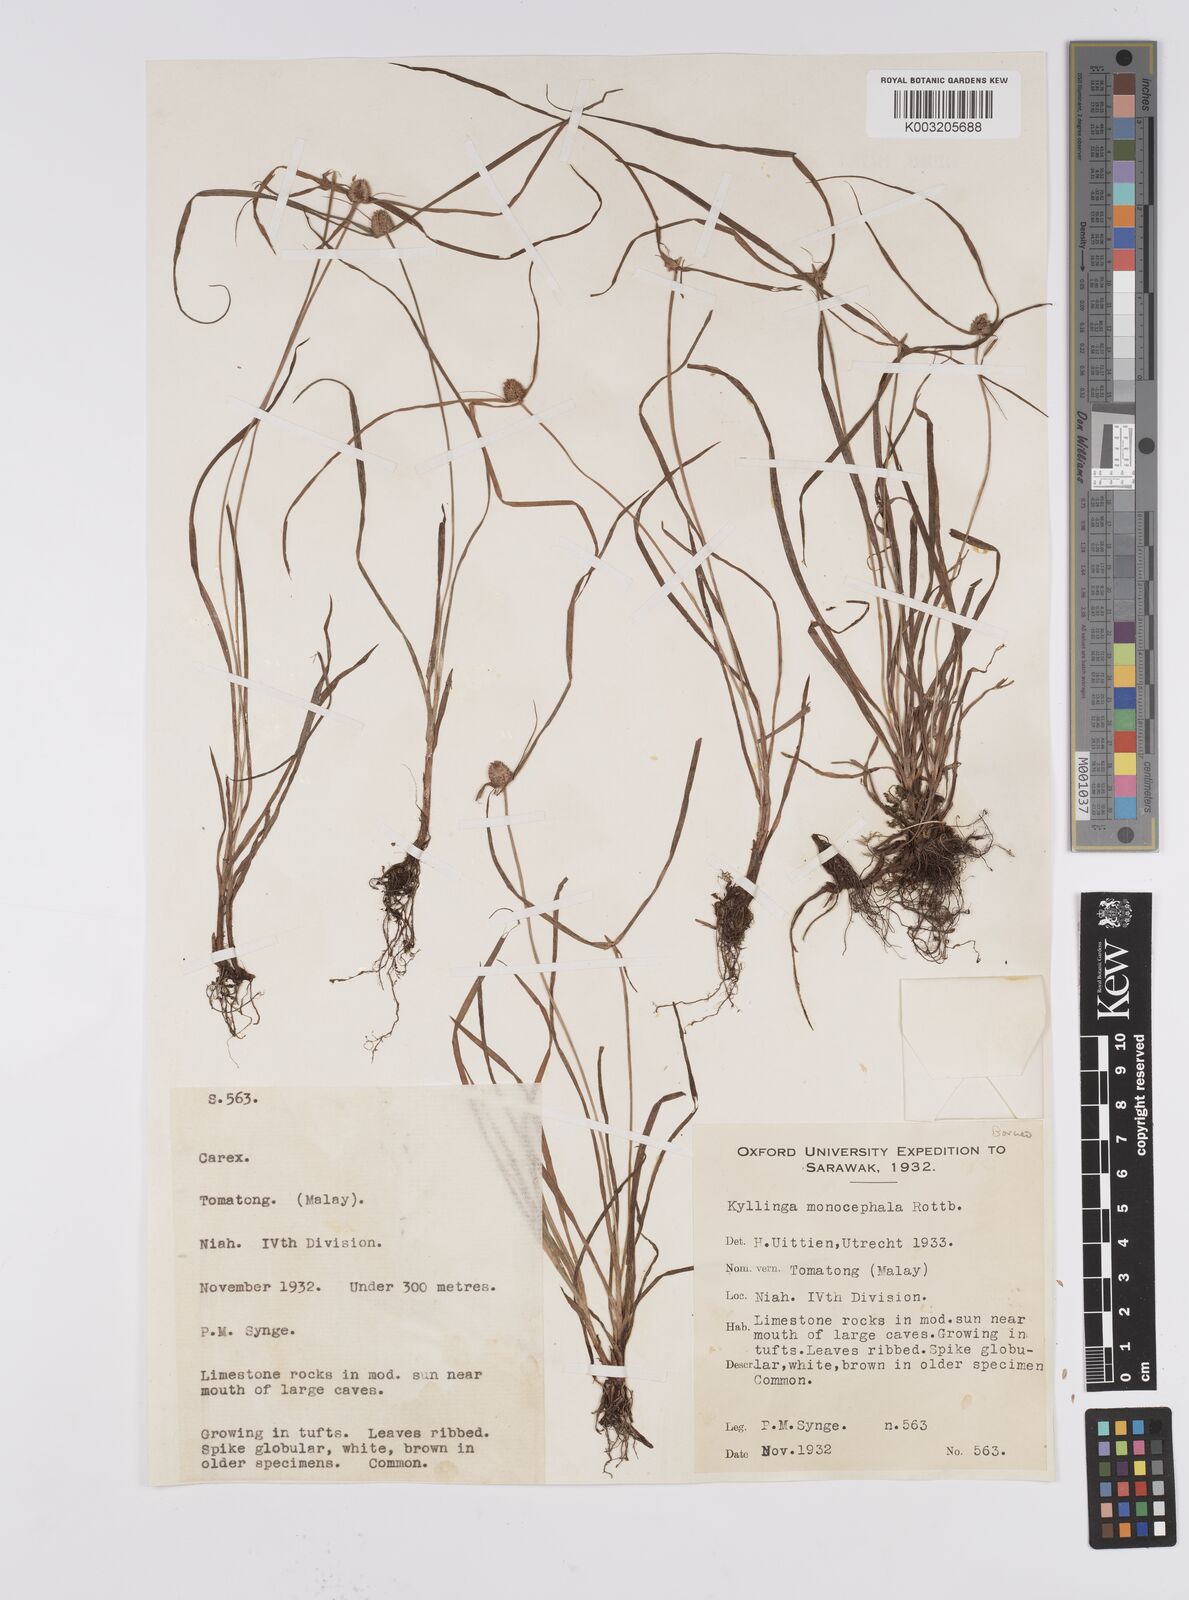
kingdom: Plantae
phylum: Tracheophyta
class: Liliopsida
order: Poales
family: Cyperaceae
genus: Cyperus
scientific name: Cyperus nemoralis
